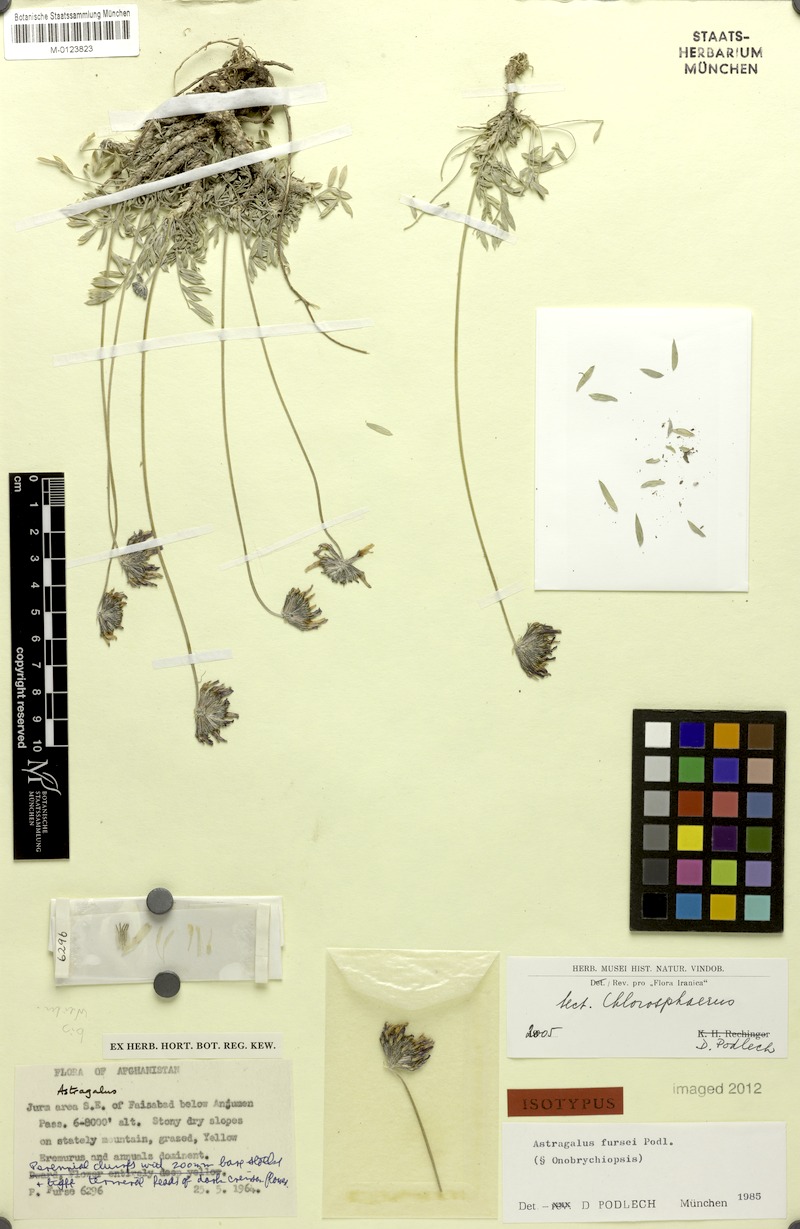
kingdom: Plantae
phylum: Tracheophyta
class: Magnoliopsida
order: Fabales
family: Fabaceae
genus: Astragalus
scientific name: Astragalus hirsutus
